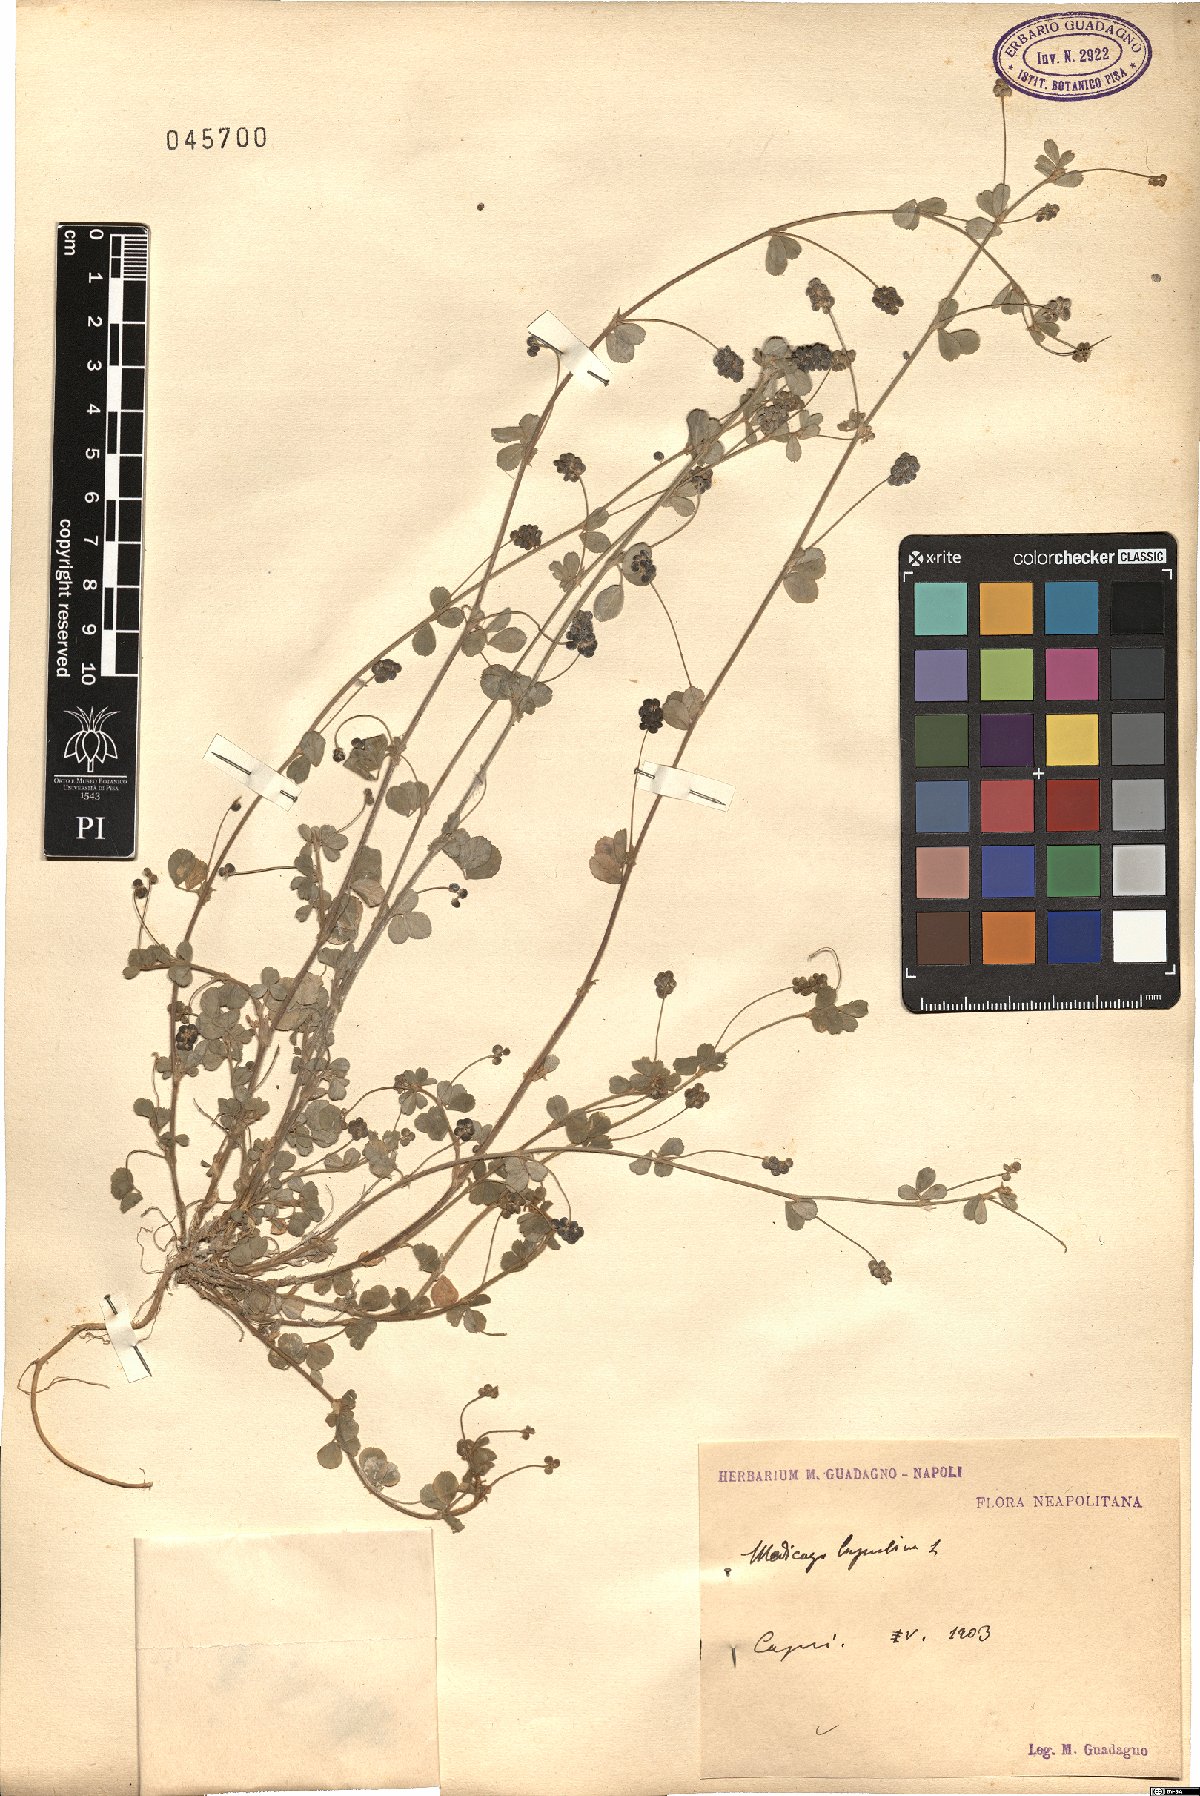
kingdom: Plantae
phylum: Tracheophyta
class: Magnoliopsida
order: Fabales
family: Fabaceae
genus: Medicago
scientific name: Medicago lupulina
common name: Black medick
